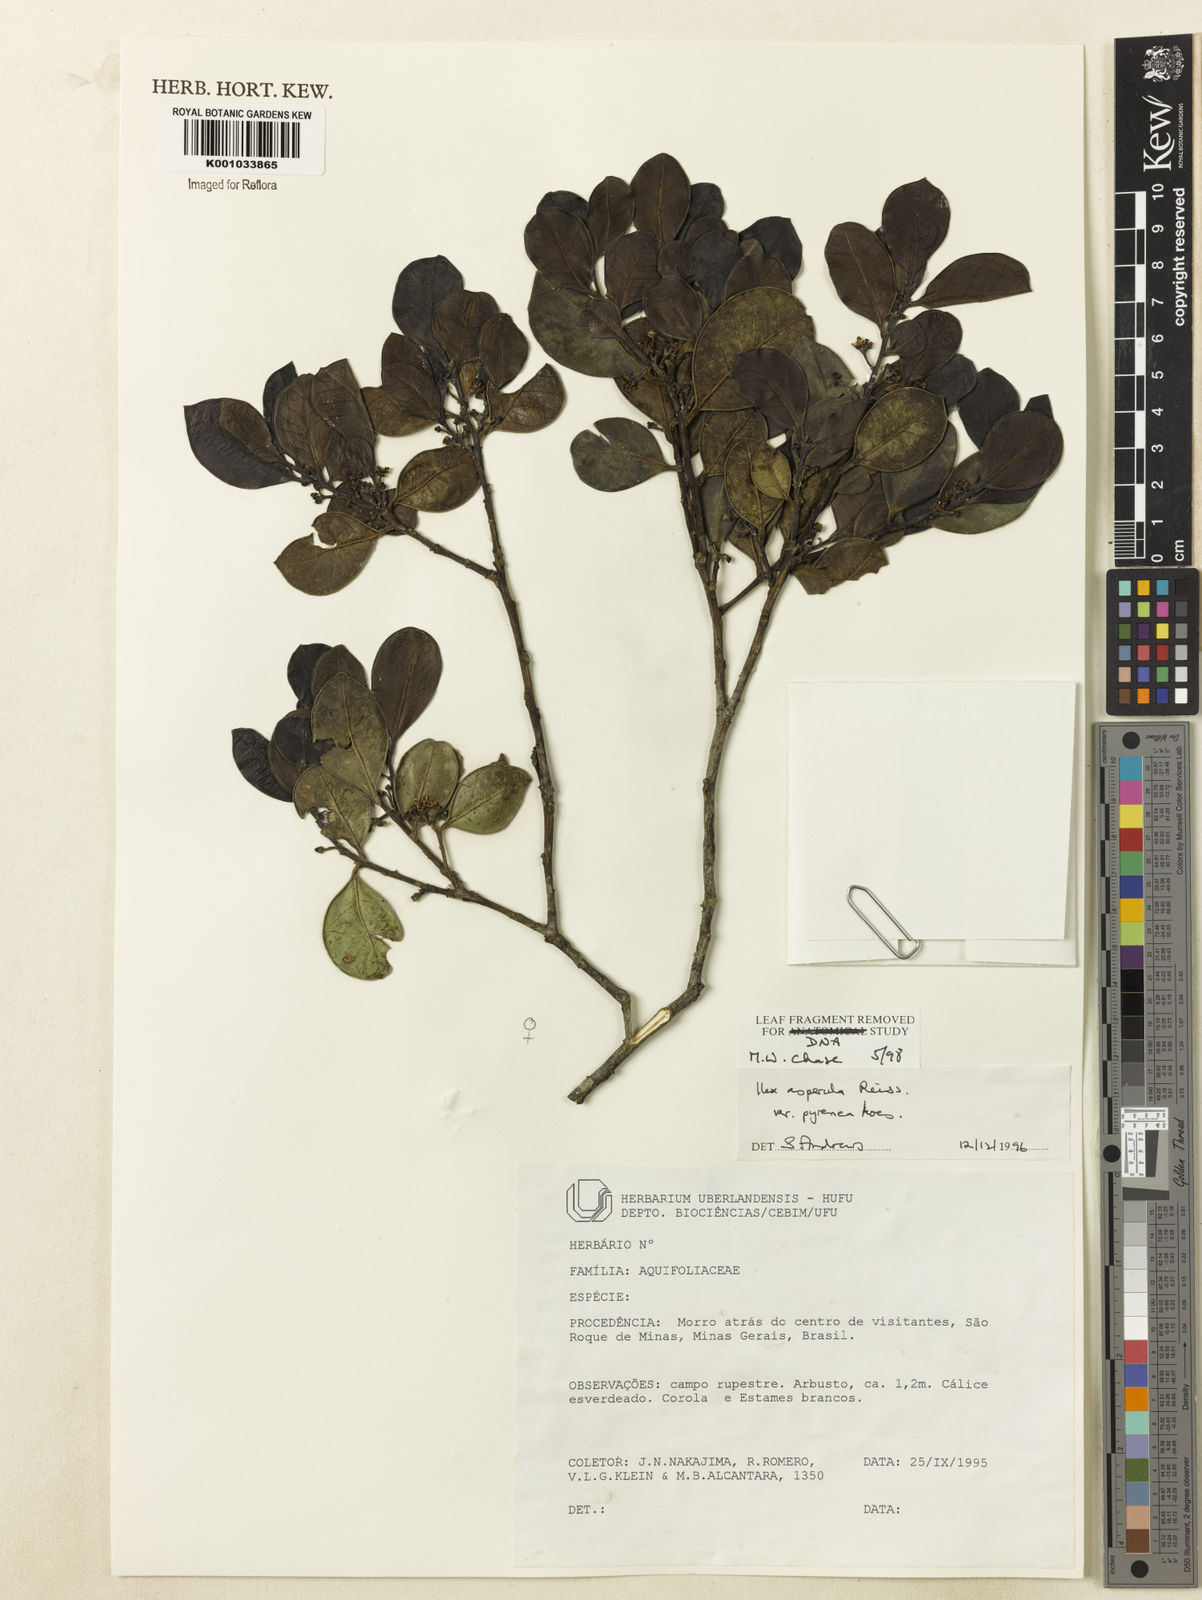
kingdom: Plantae
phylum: Tracheophyta
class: Magnoliopsida
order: Aquifoliales
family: Aquifoliaceae
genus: Ilex
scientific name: Ilex asperula
